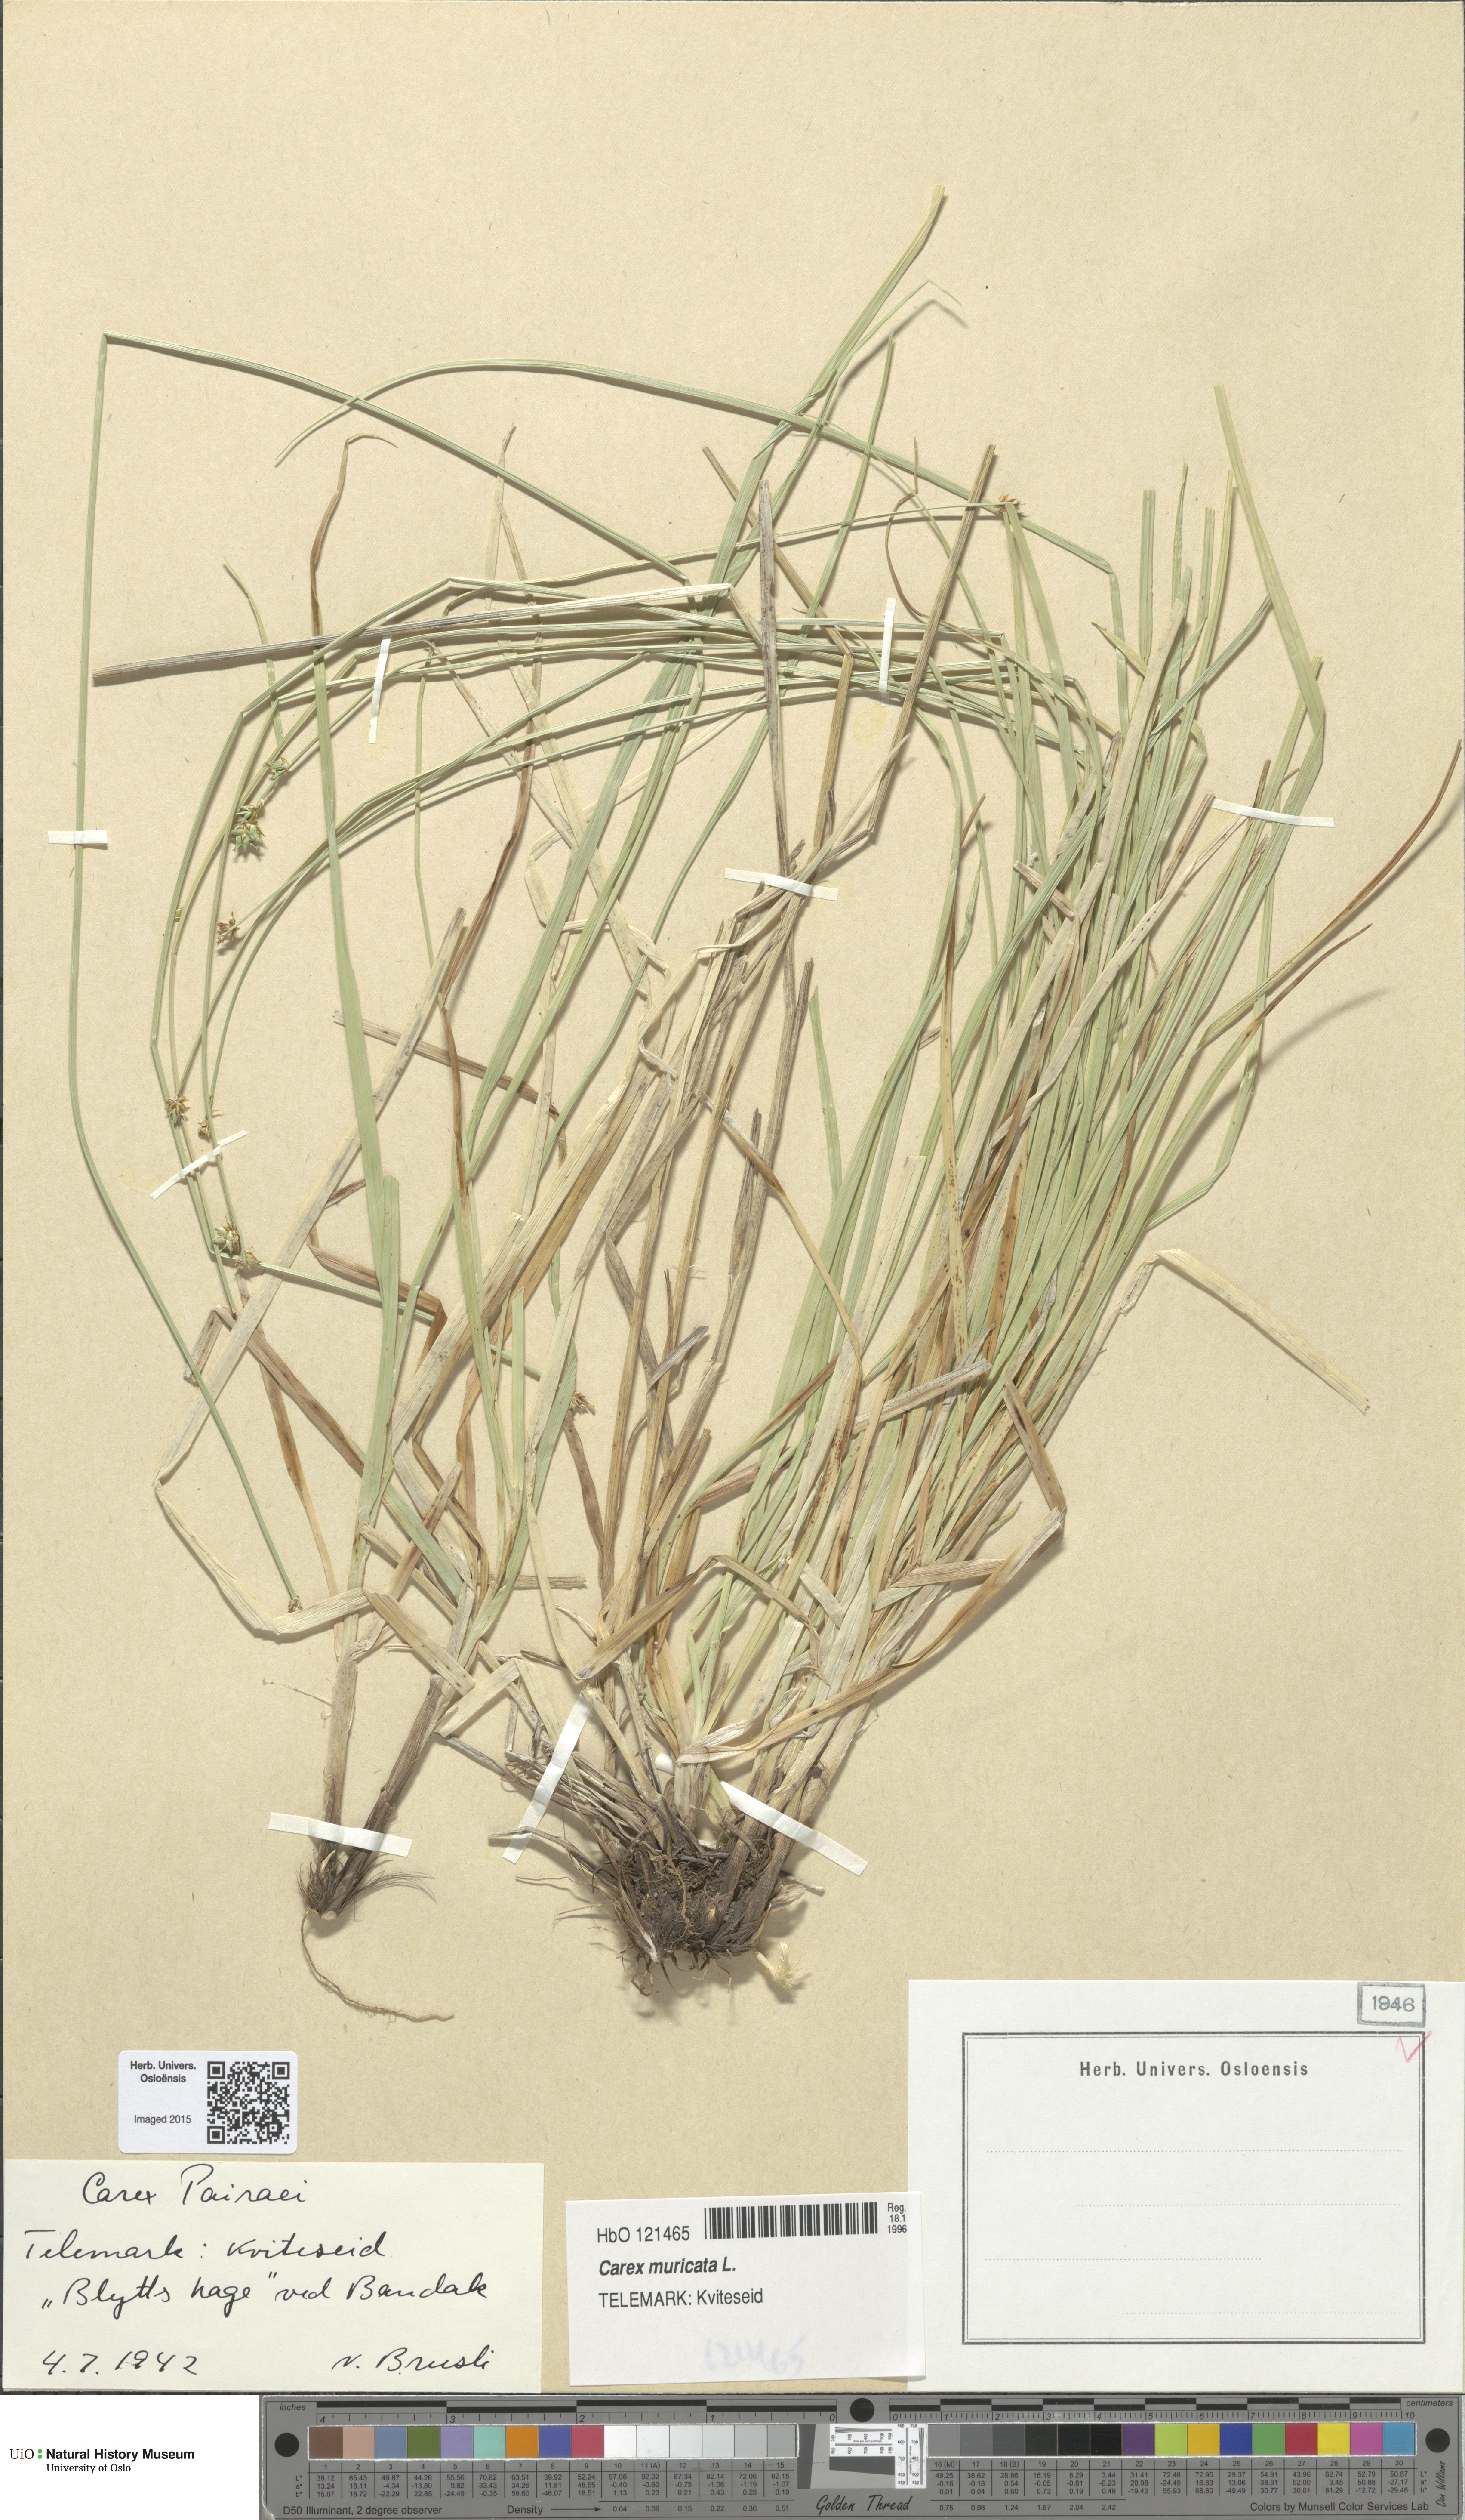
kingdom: Plantae
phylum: Tracheophyta
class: Liliopsida
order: Poales
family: Cyperaceae
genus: Carex
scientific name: Carex pairae
